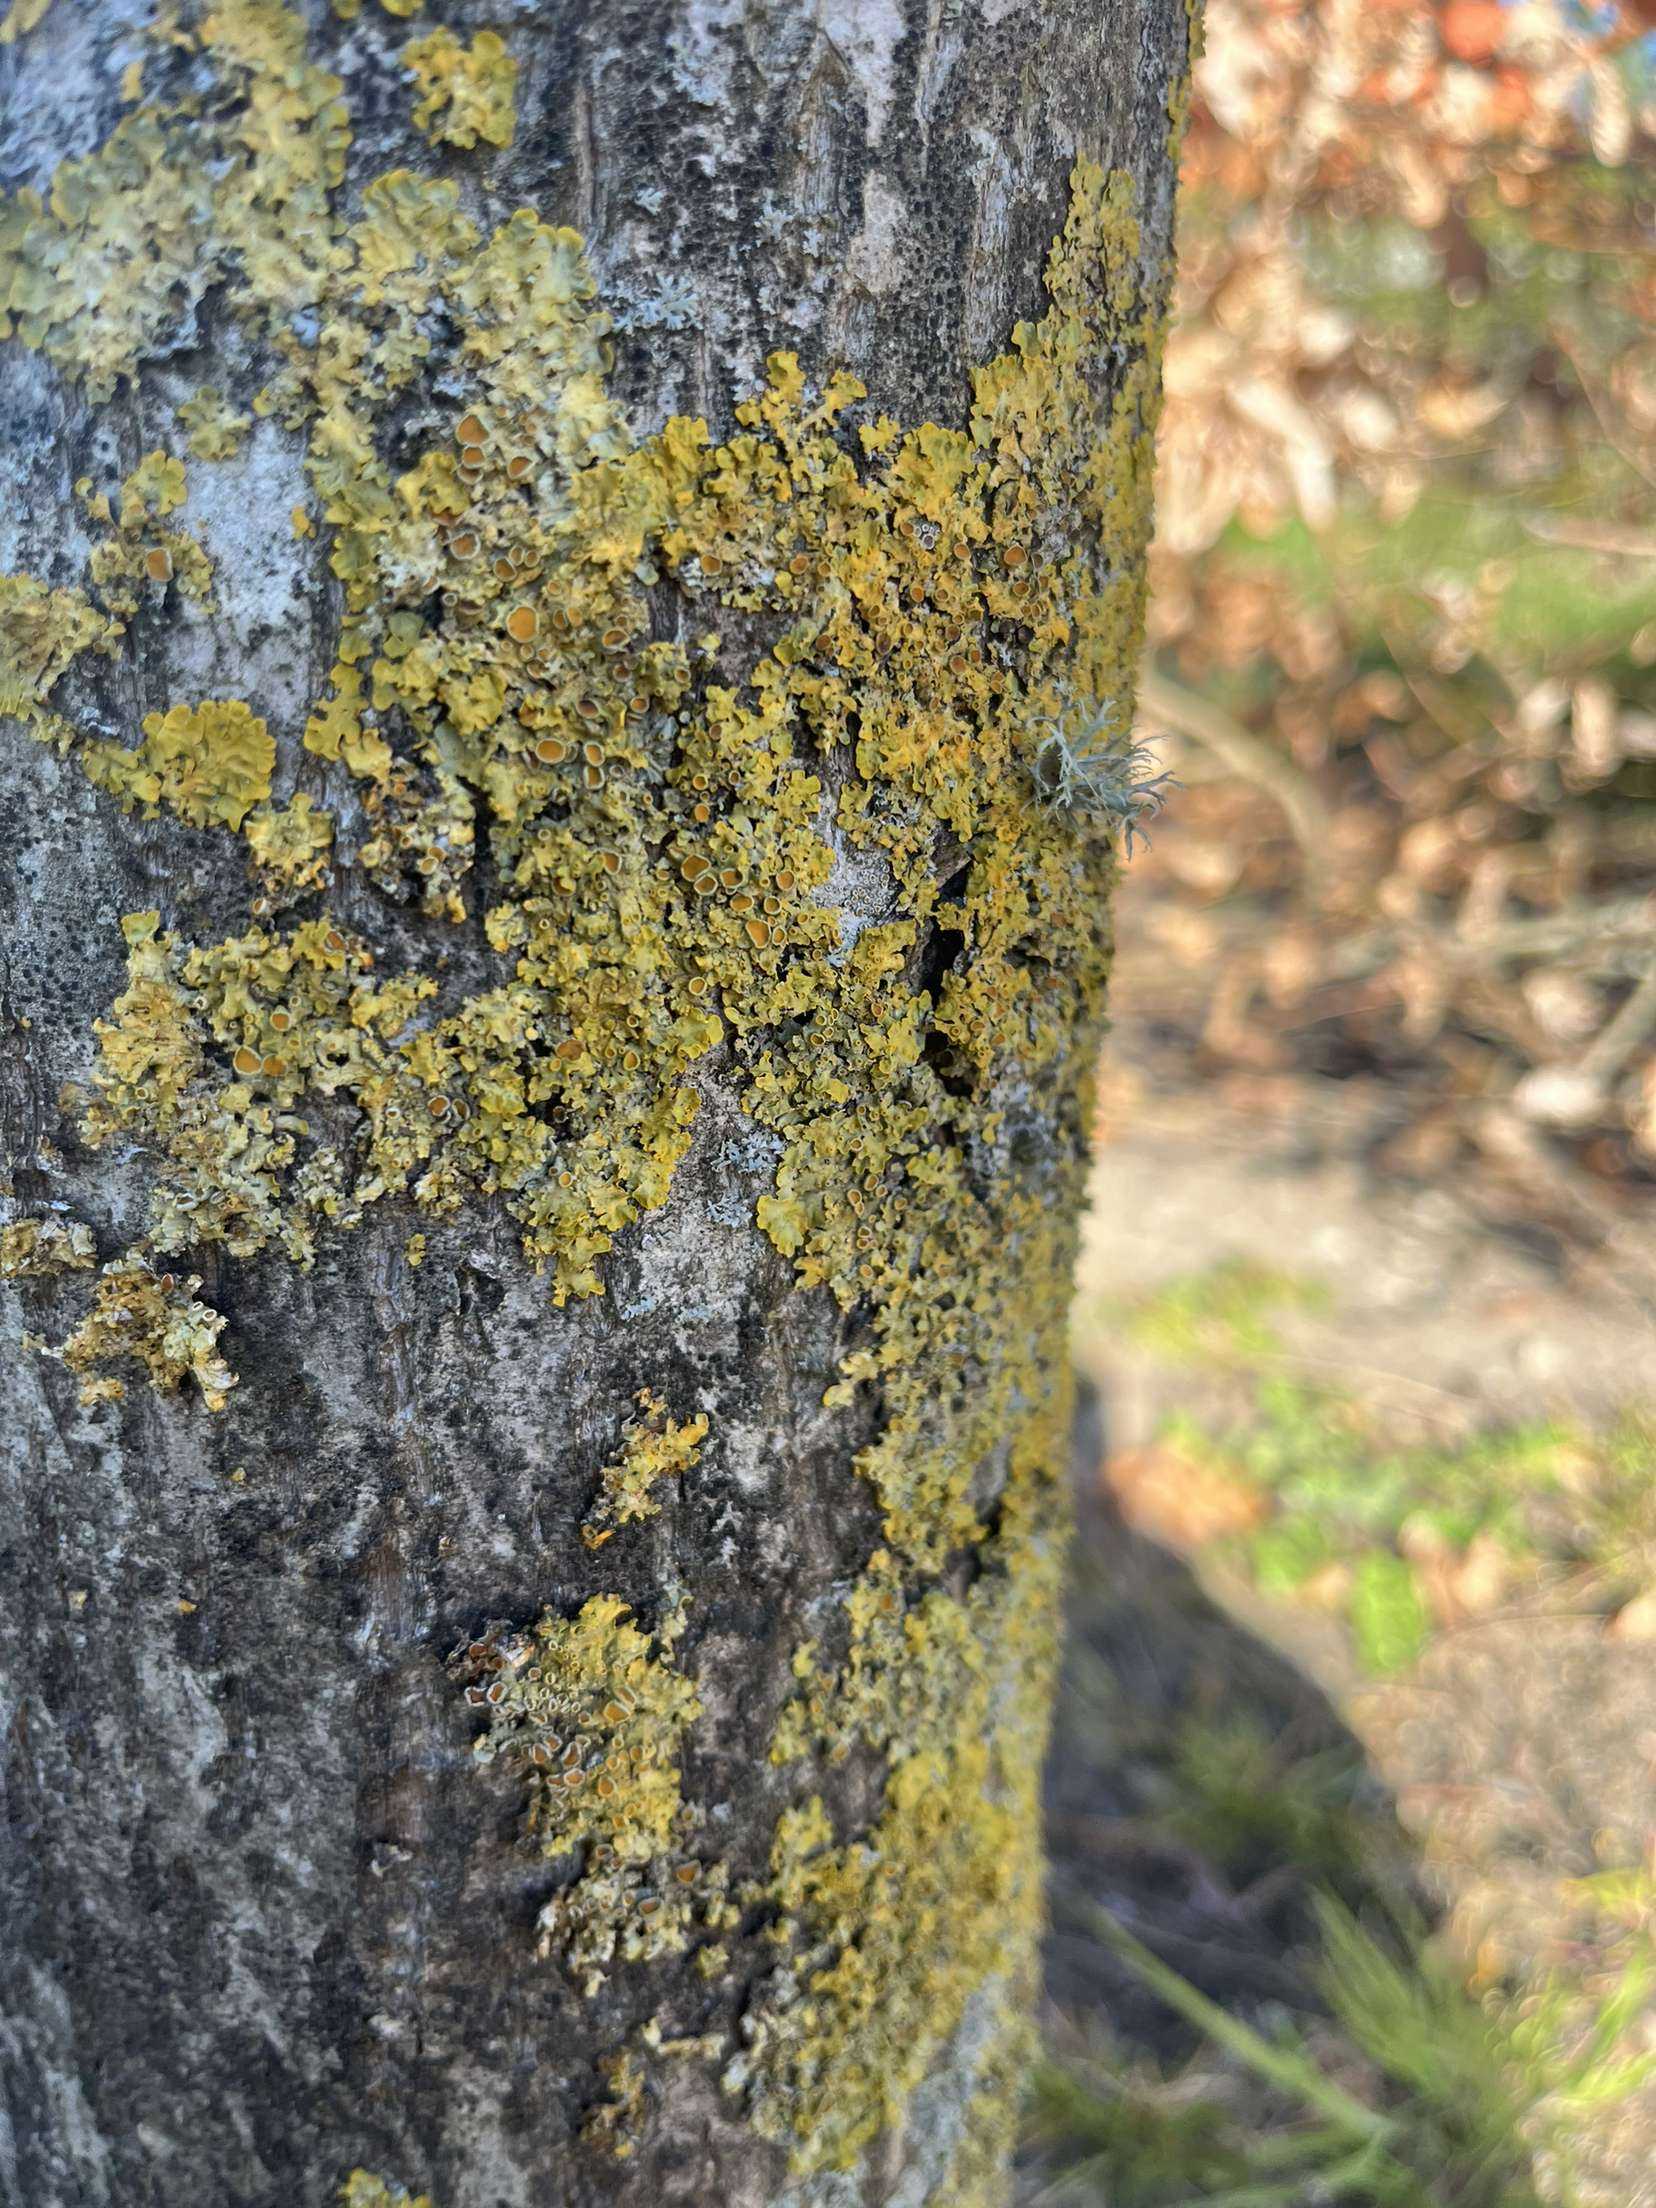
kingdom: Fungi
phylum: Ascomycota
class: Lecanoromycetes
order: Teloschistales
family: Teloschistaceae
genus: Xanthoria
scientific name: Xanthoria parietina
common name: Almindelig væggelav
